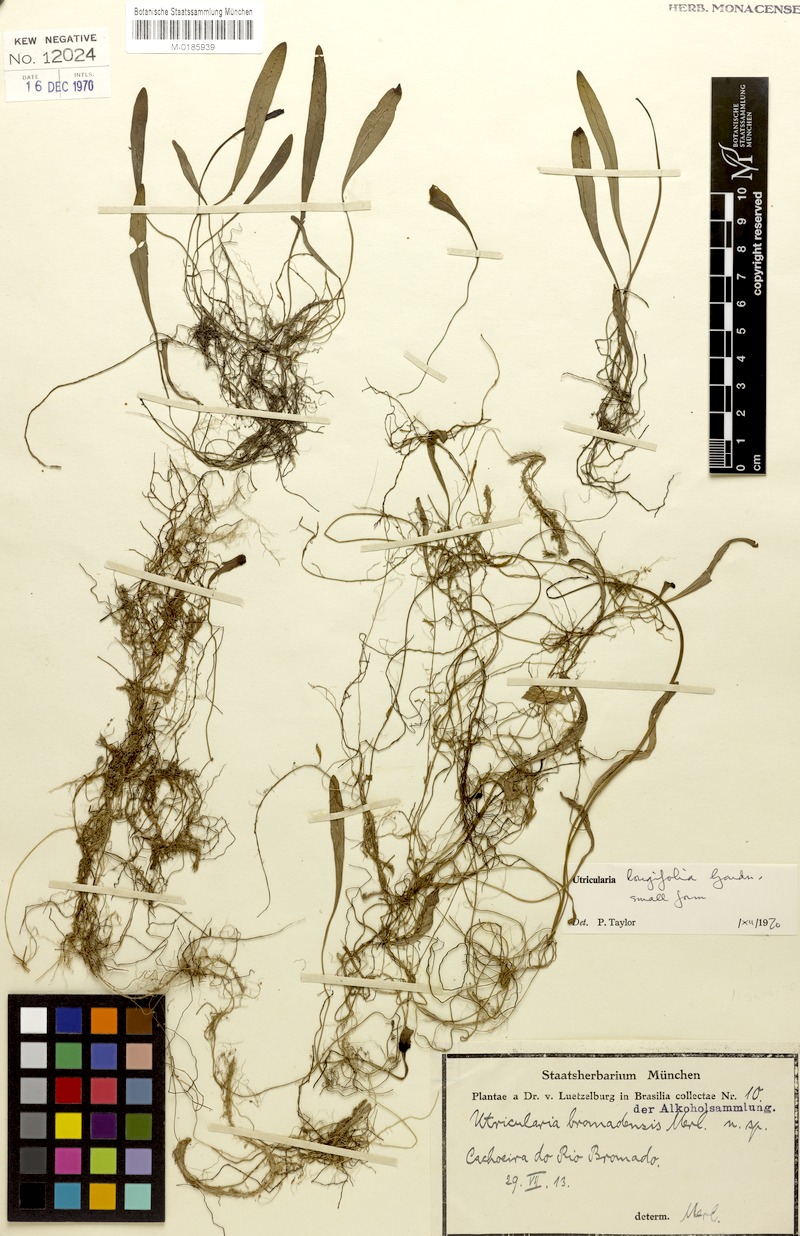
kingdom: Plantae
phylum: Tracheophyta
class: Magnoliopsida
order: Lamiales
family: Lentibulariaceae
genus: Utricularia
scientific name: Utricularia longifolia
